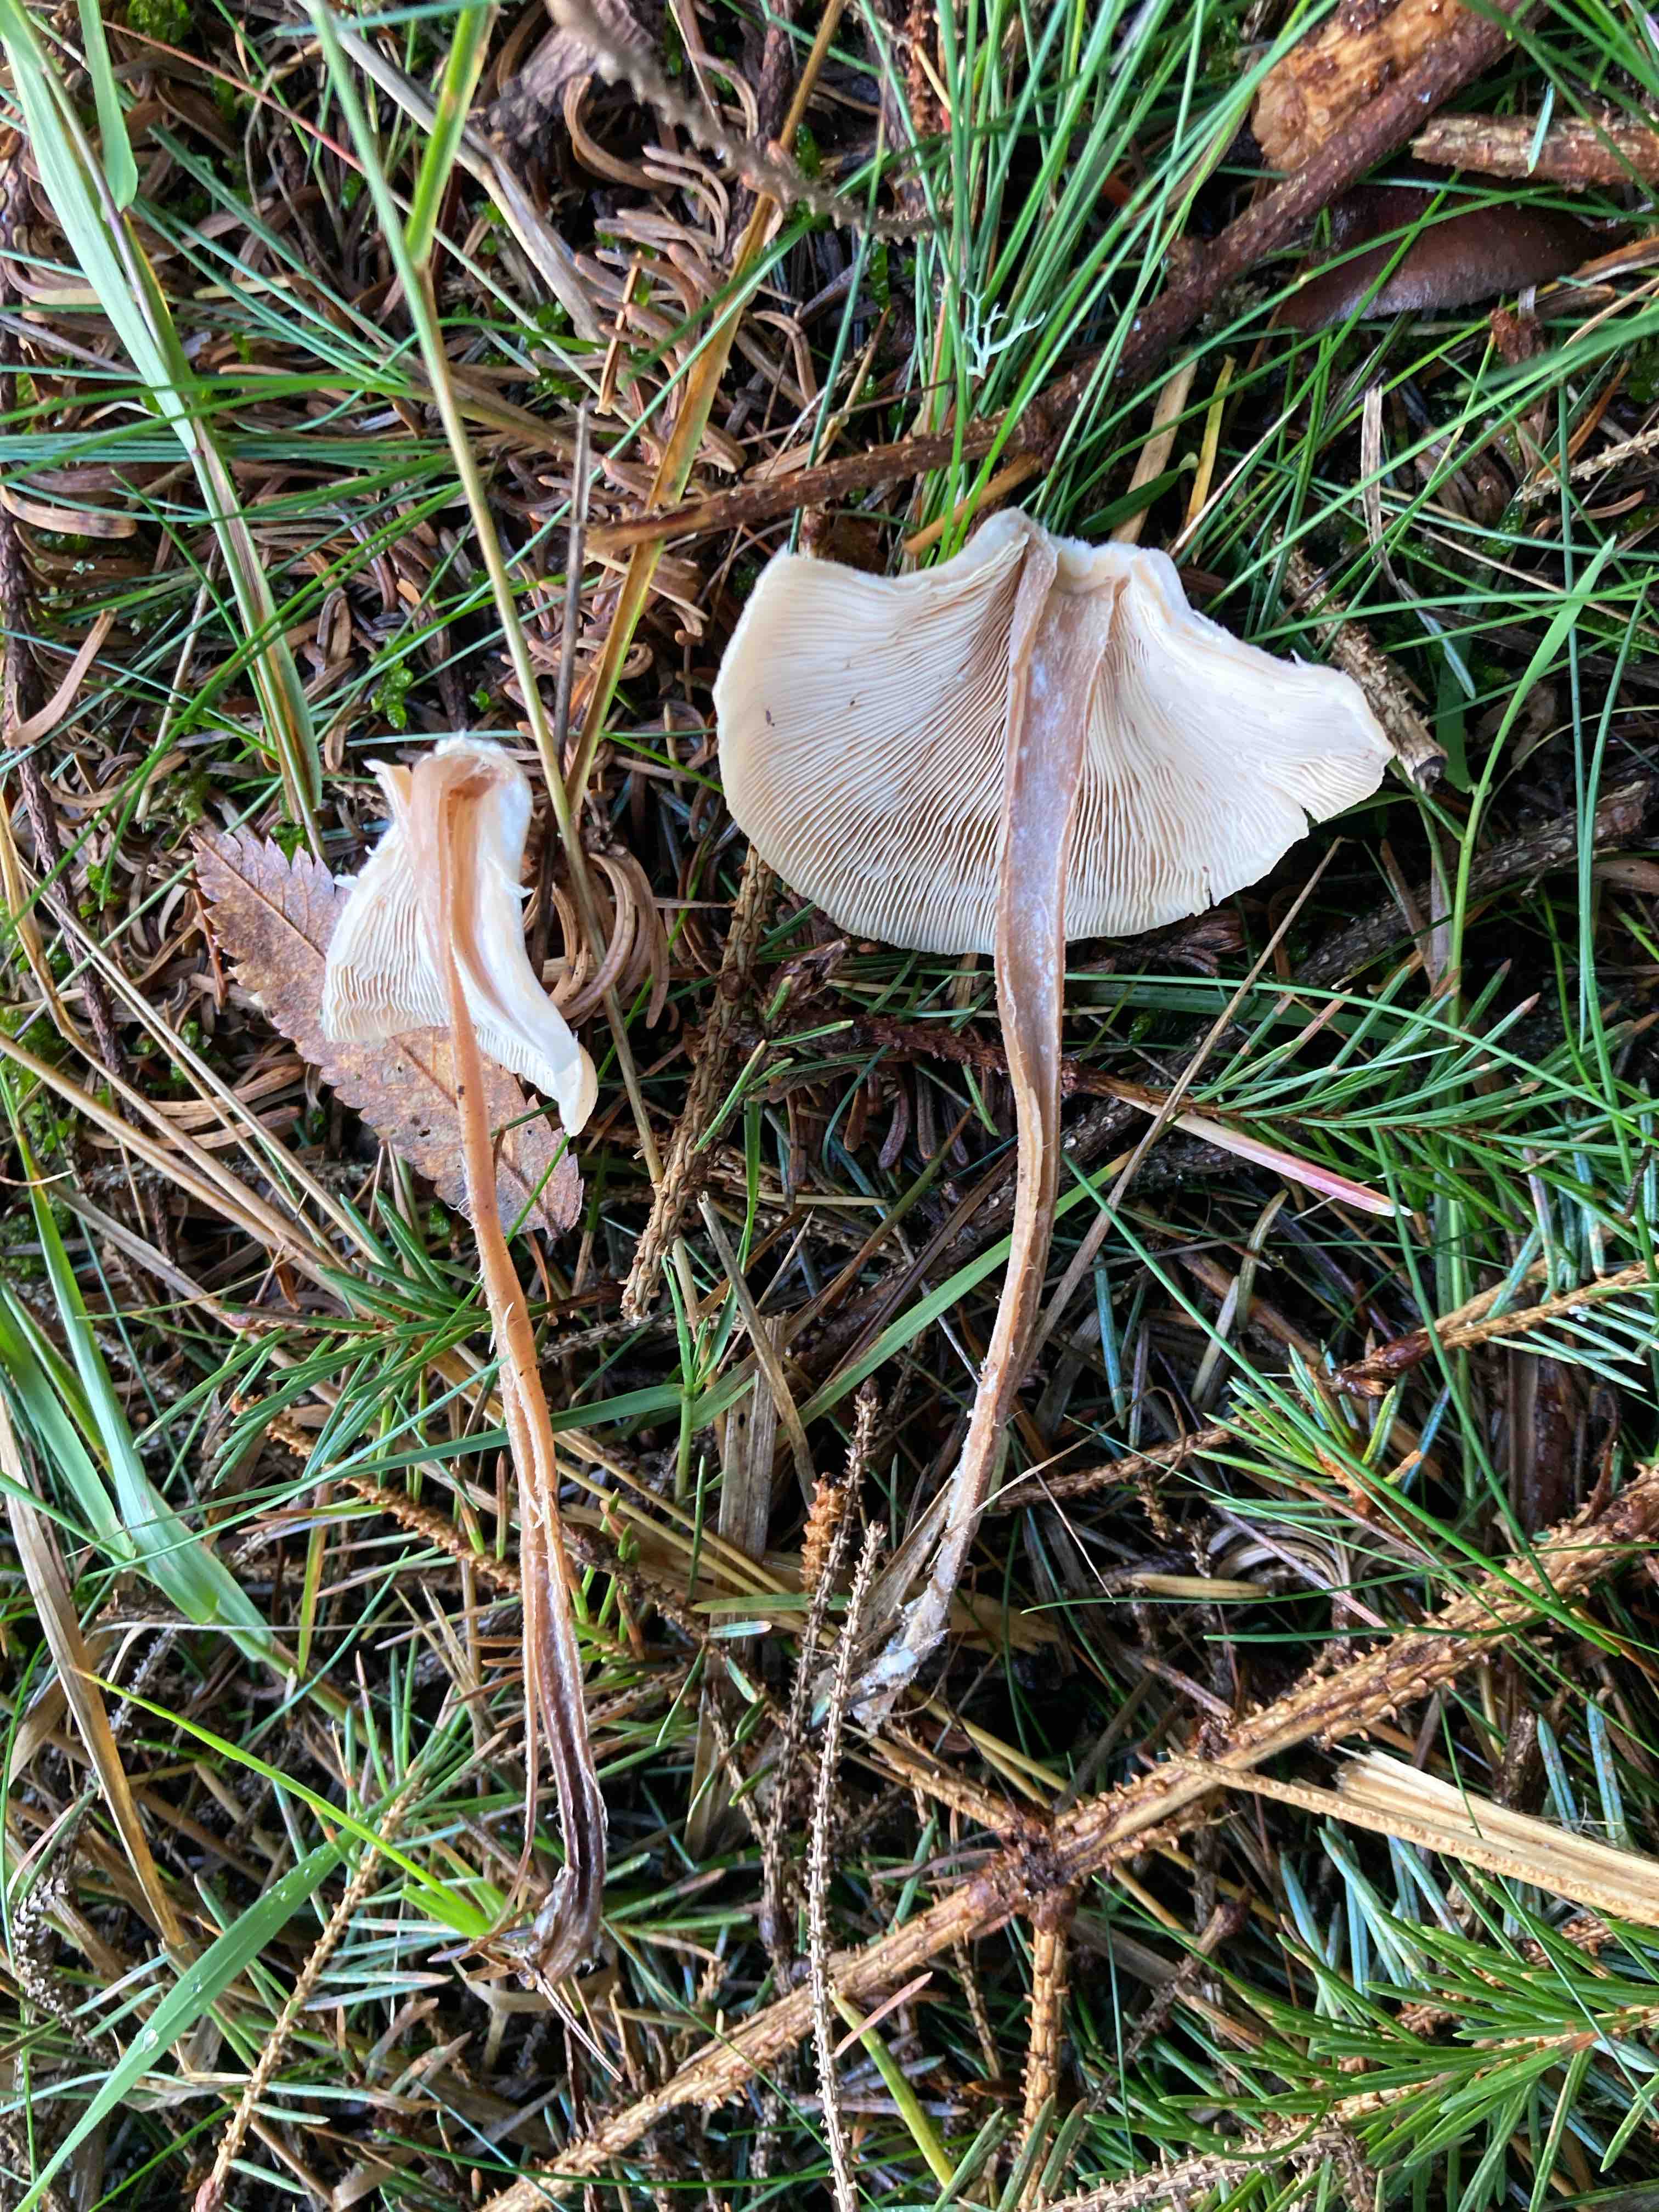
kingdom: Fungi
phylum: Basidiomycota
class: Agaricomycetes
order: Agaricales
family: Omphalotaceae
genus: Collybiopsis
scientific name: Collybiopsis confluens
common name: knippe-fladhat
